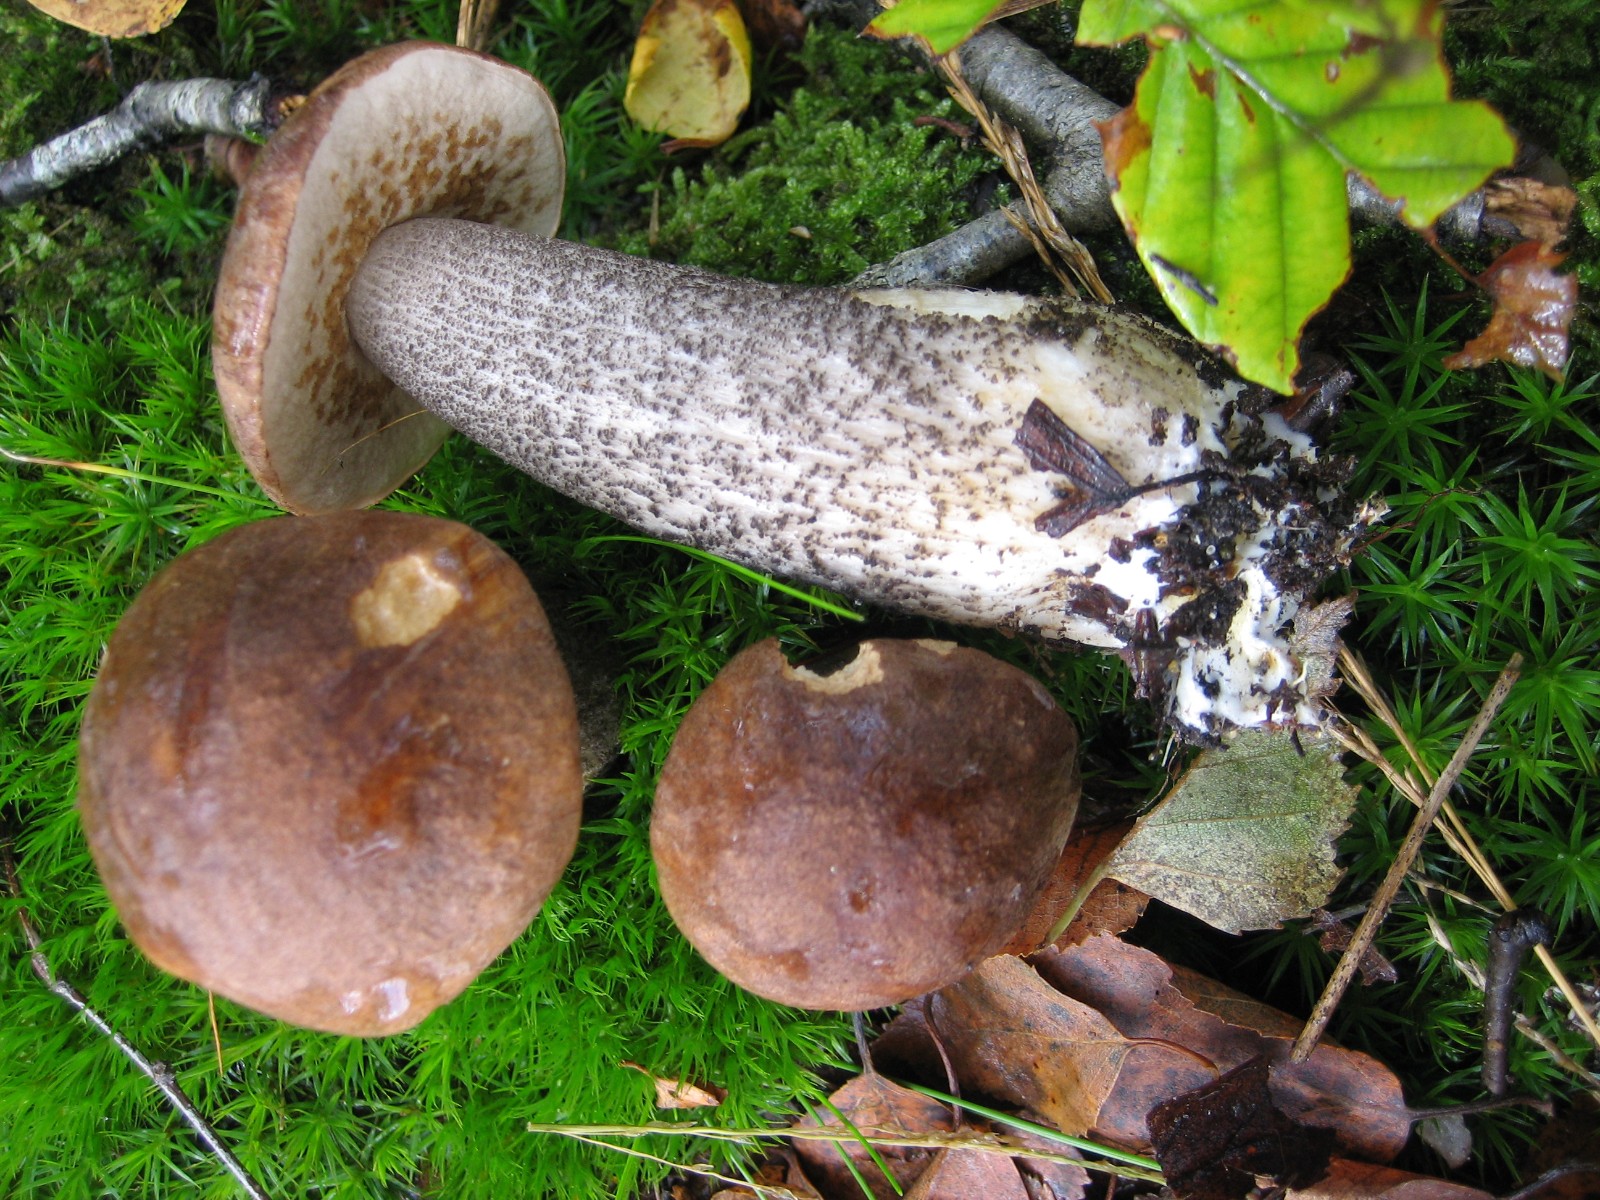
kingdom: Fungi
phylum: Basidiomycota
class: Agaricomycetes
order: Boletales
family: Boletaceae
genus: Leccinum
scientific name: Leccinum scabrum
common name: brun skælrørhat
